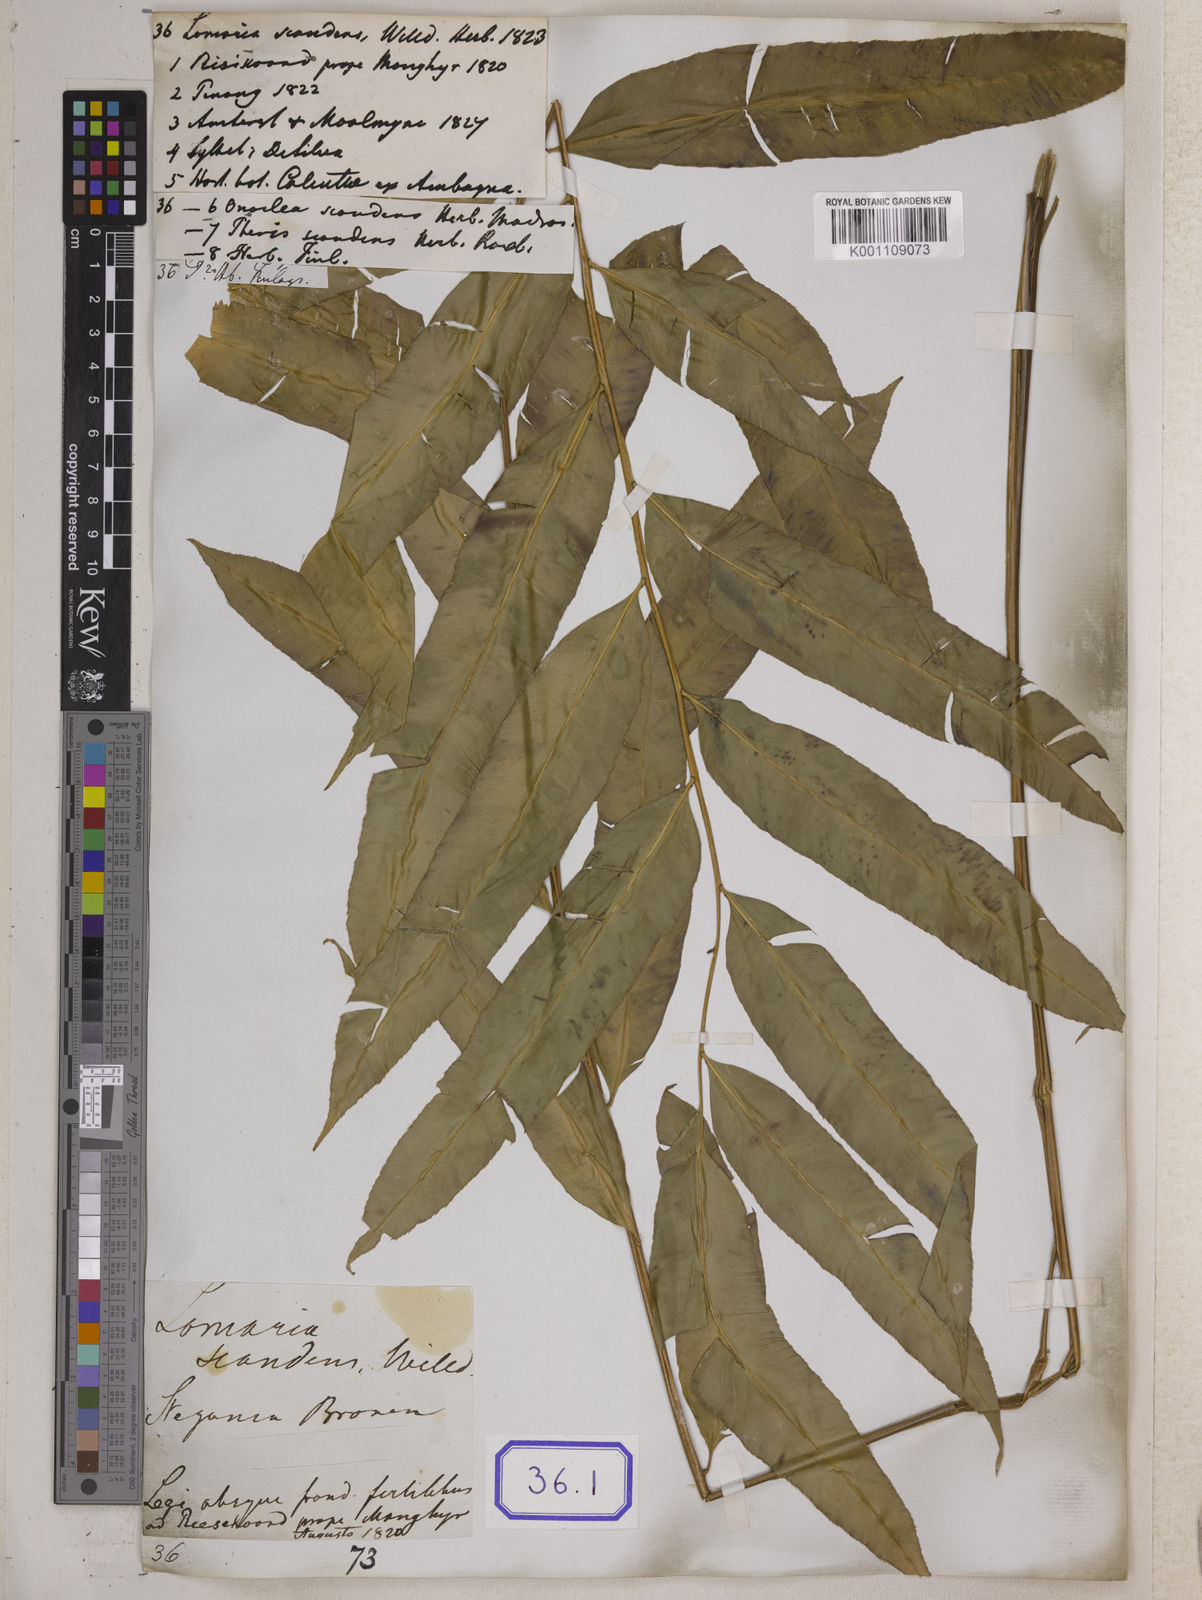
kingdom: Plantae
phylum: Tracheophyta
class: Polypodiopsida
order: Polypodiales
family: Blechnaceae
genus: Stenochlaena
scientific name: Stenochlaena palustris
